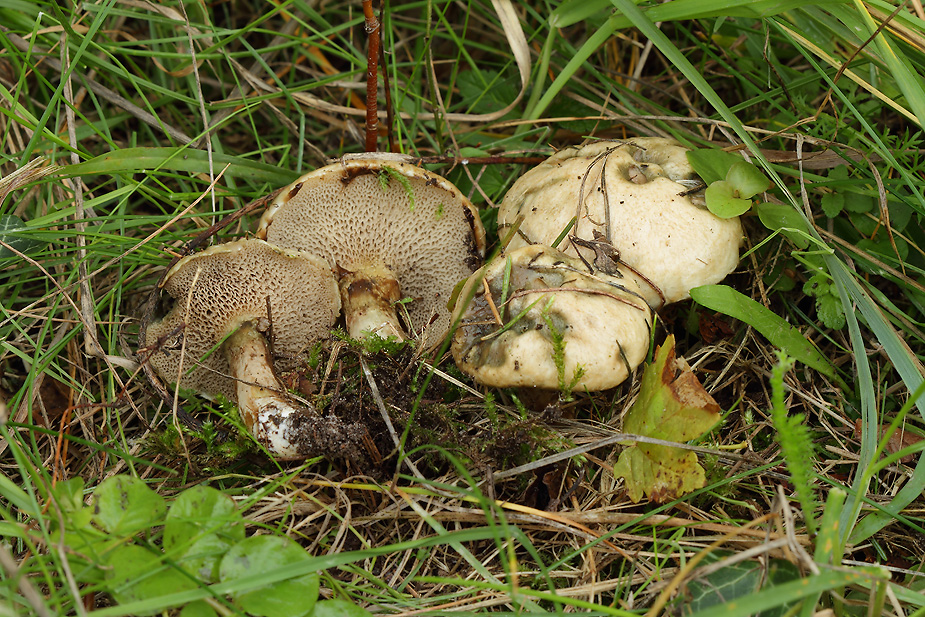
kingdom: Fungi
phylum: Basidiomycota
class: Agaricomycetes
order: Boletales
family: Suillaceae
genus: Suillus
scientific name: Suillus viscidus
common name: olivengrå slimrørhat
